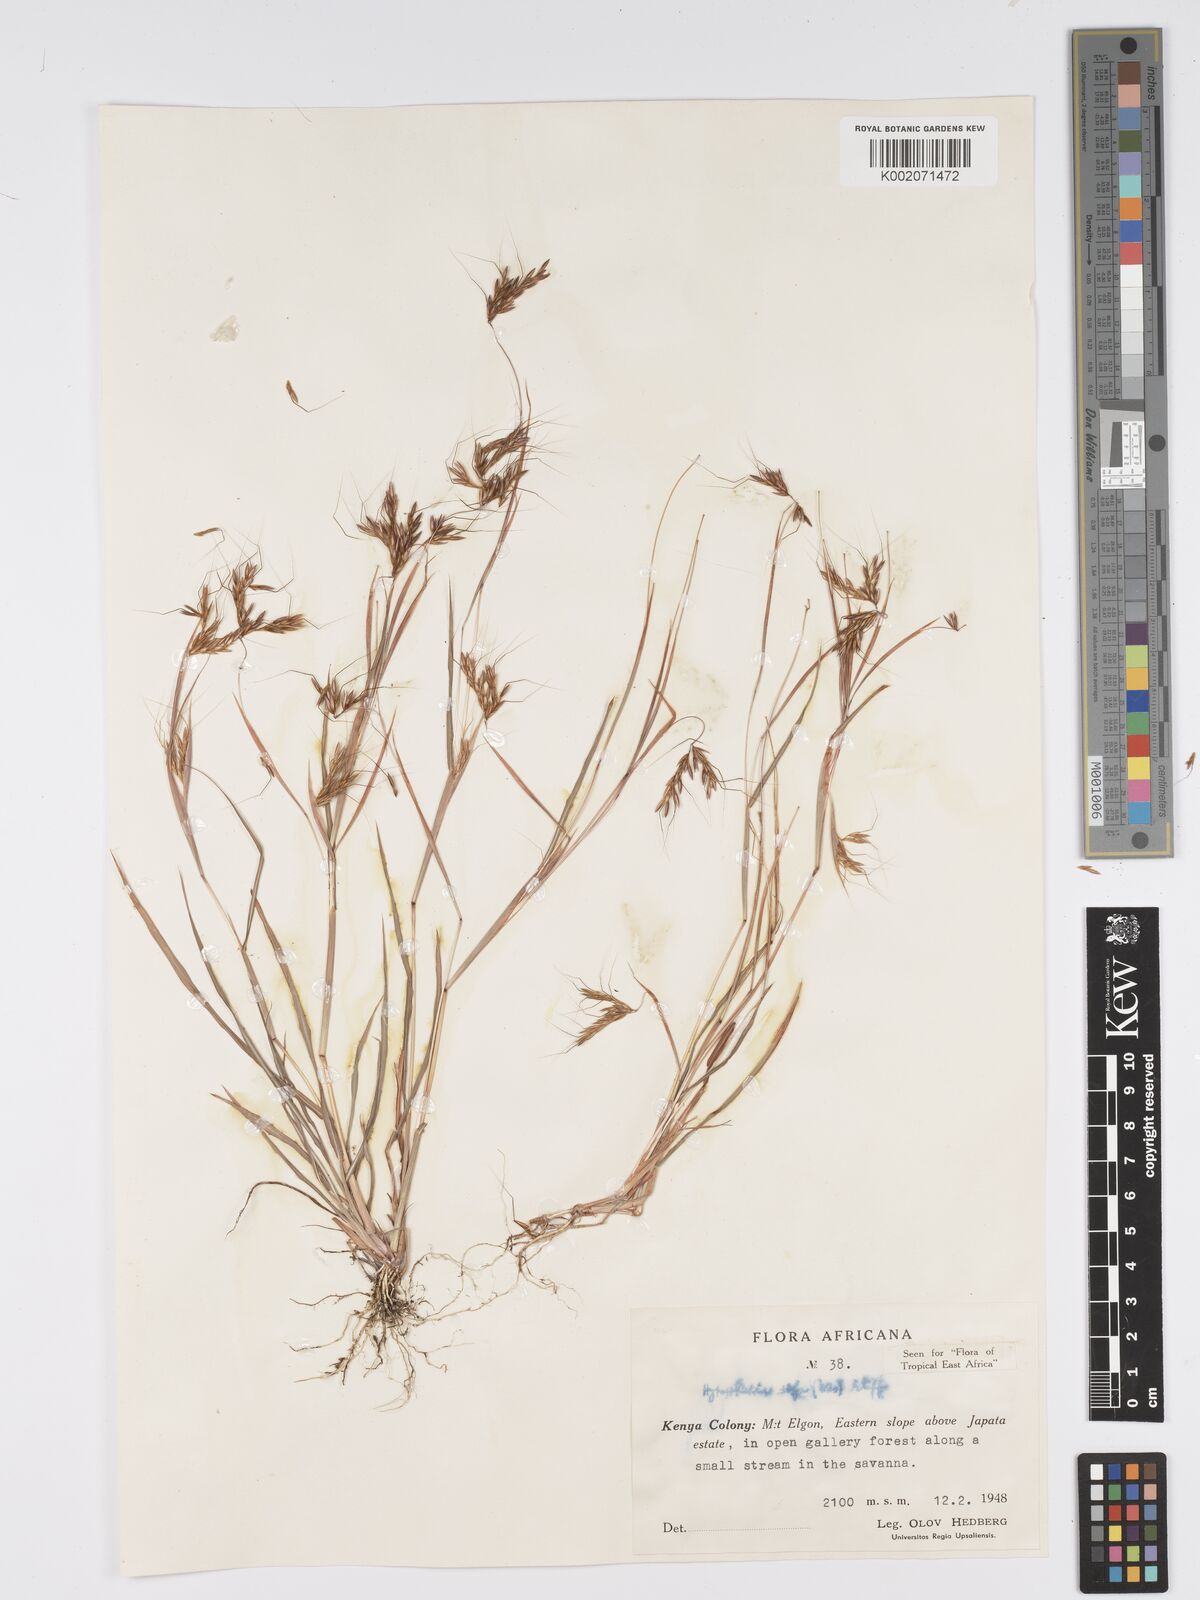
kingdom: Plantae
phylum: Tracheophyta
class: Liliopsida
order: Poales
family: Poaceae
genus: Hyparrhenia
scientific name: Hyparrhenia rufa
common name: Jaraguagrass
